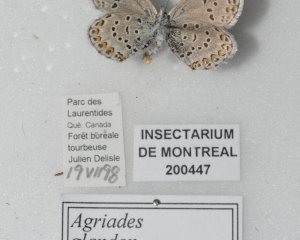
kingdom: Animalia
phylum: Arthropoda
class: Insecta
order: Lepidoptera
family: Lycaenidae
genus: Agriades
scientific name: Agriades glandon
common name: Arctic Blue
